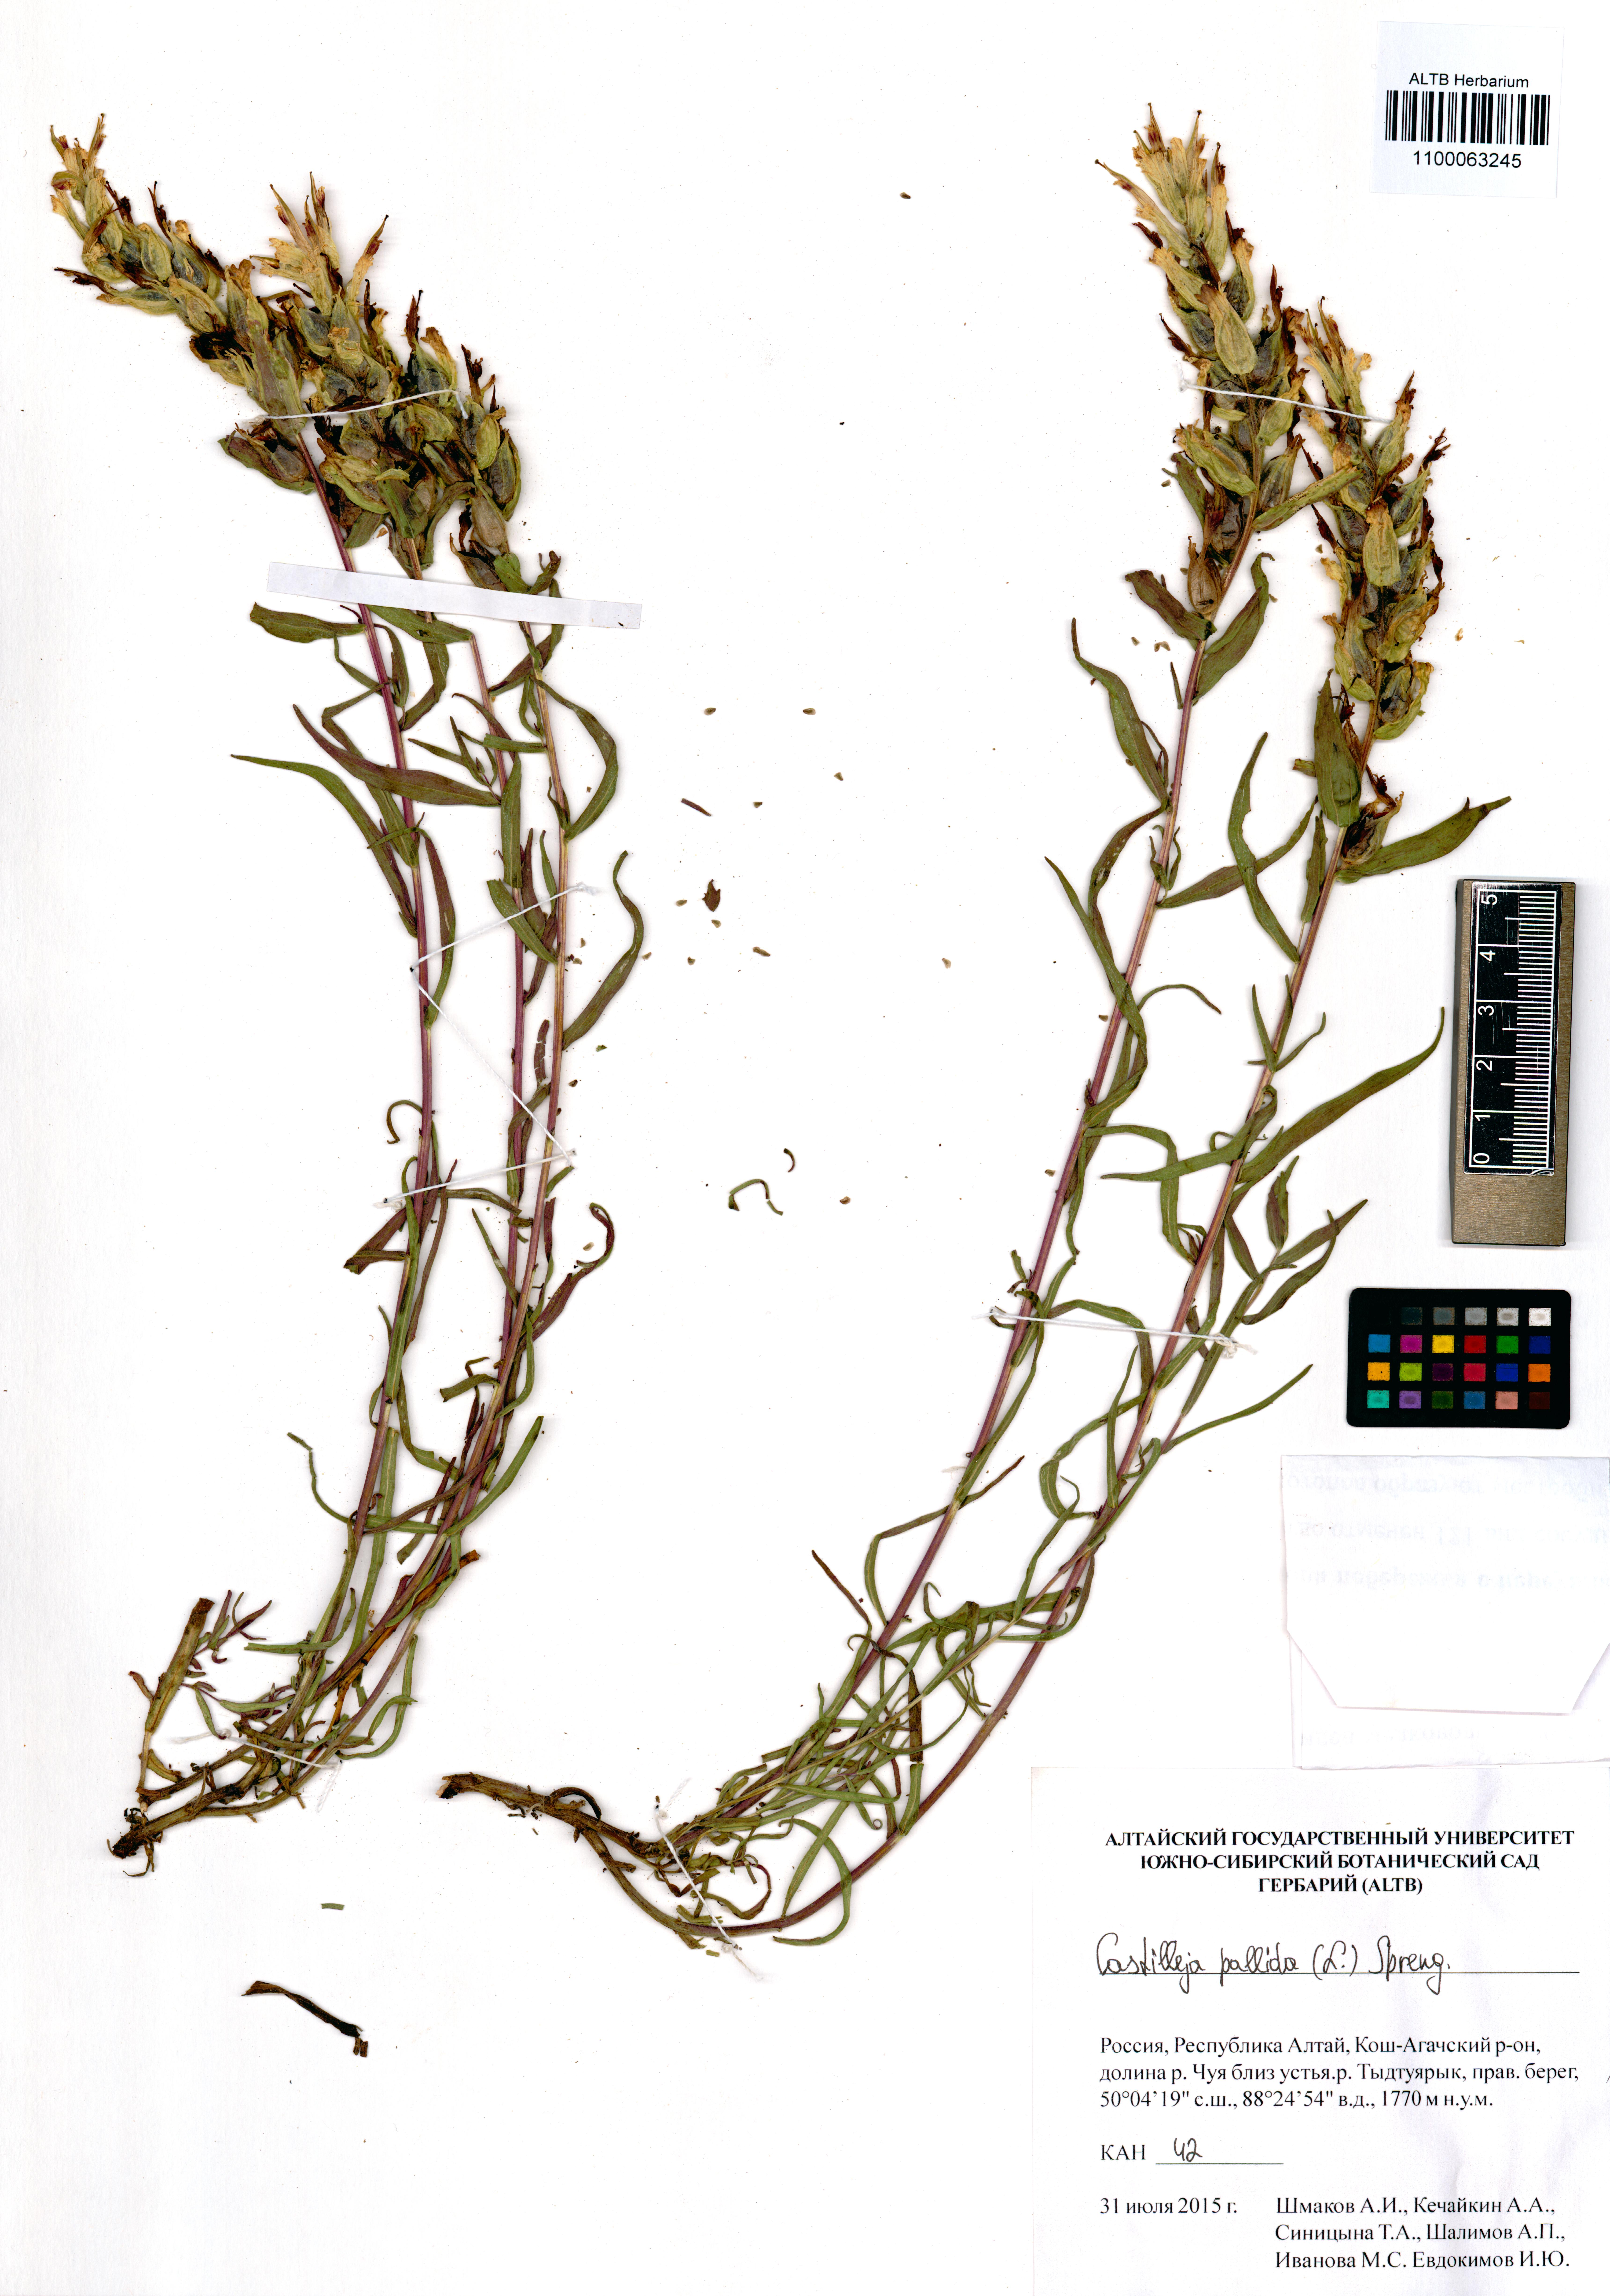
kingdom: Plantae
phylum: Tracheophyta
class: Magnoliopsida
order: Lamiales
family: Orobanchaceae
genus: Castilleja
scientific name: Castilleja pallida
